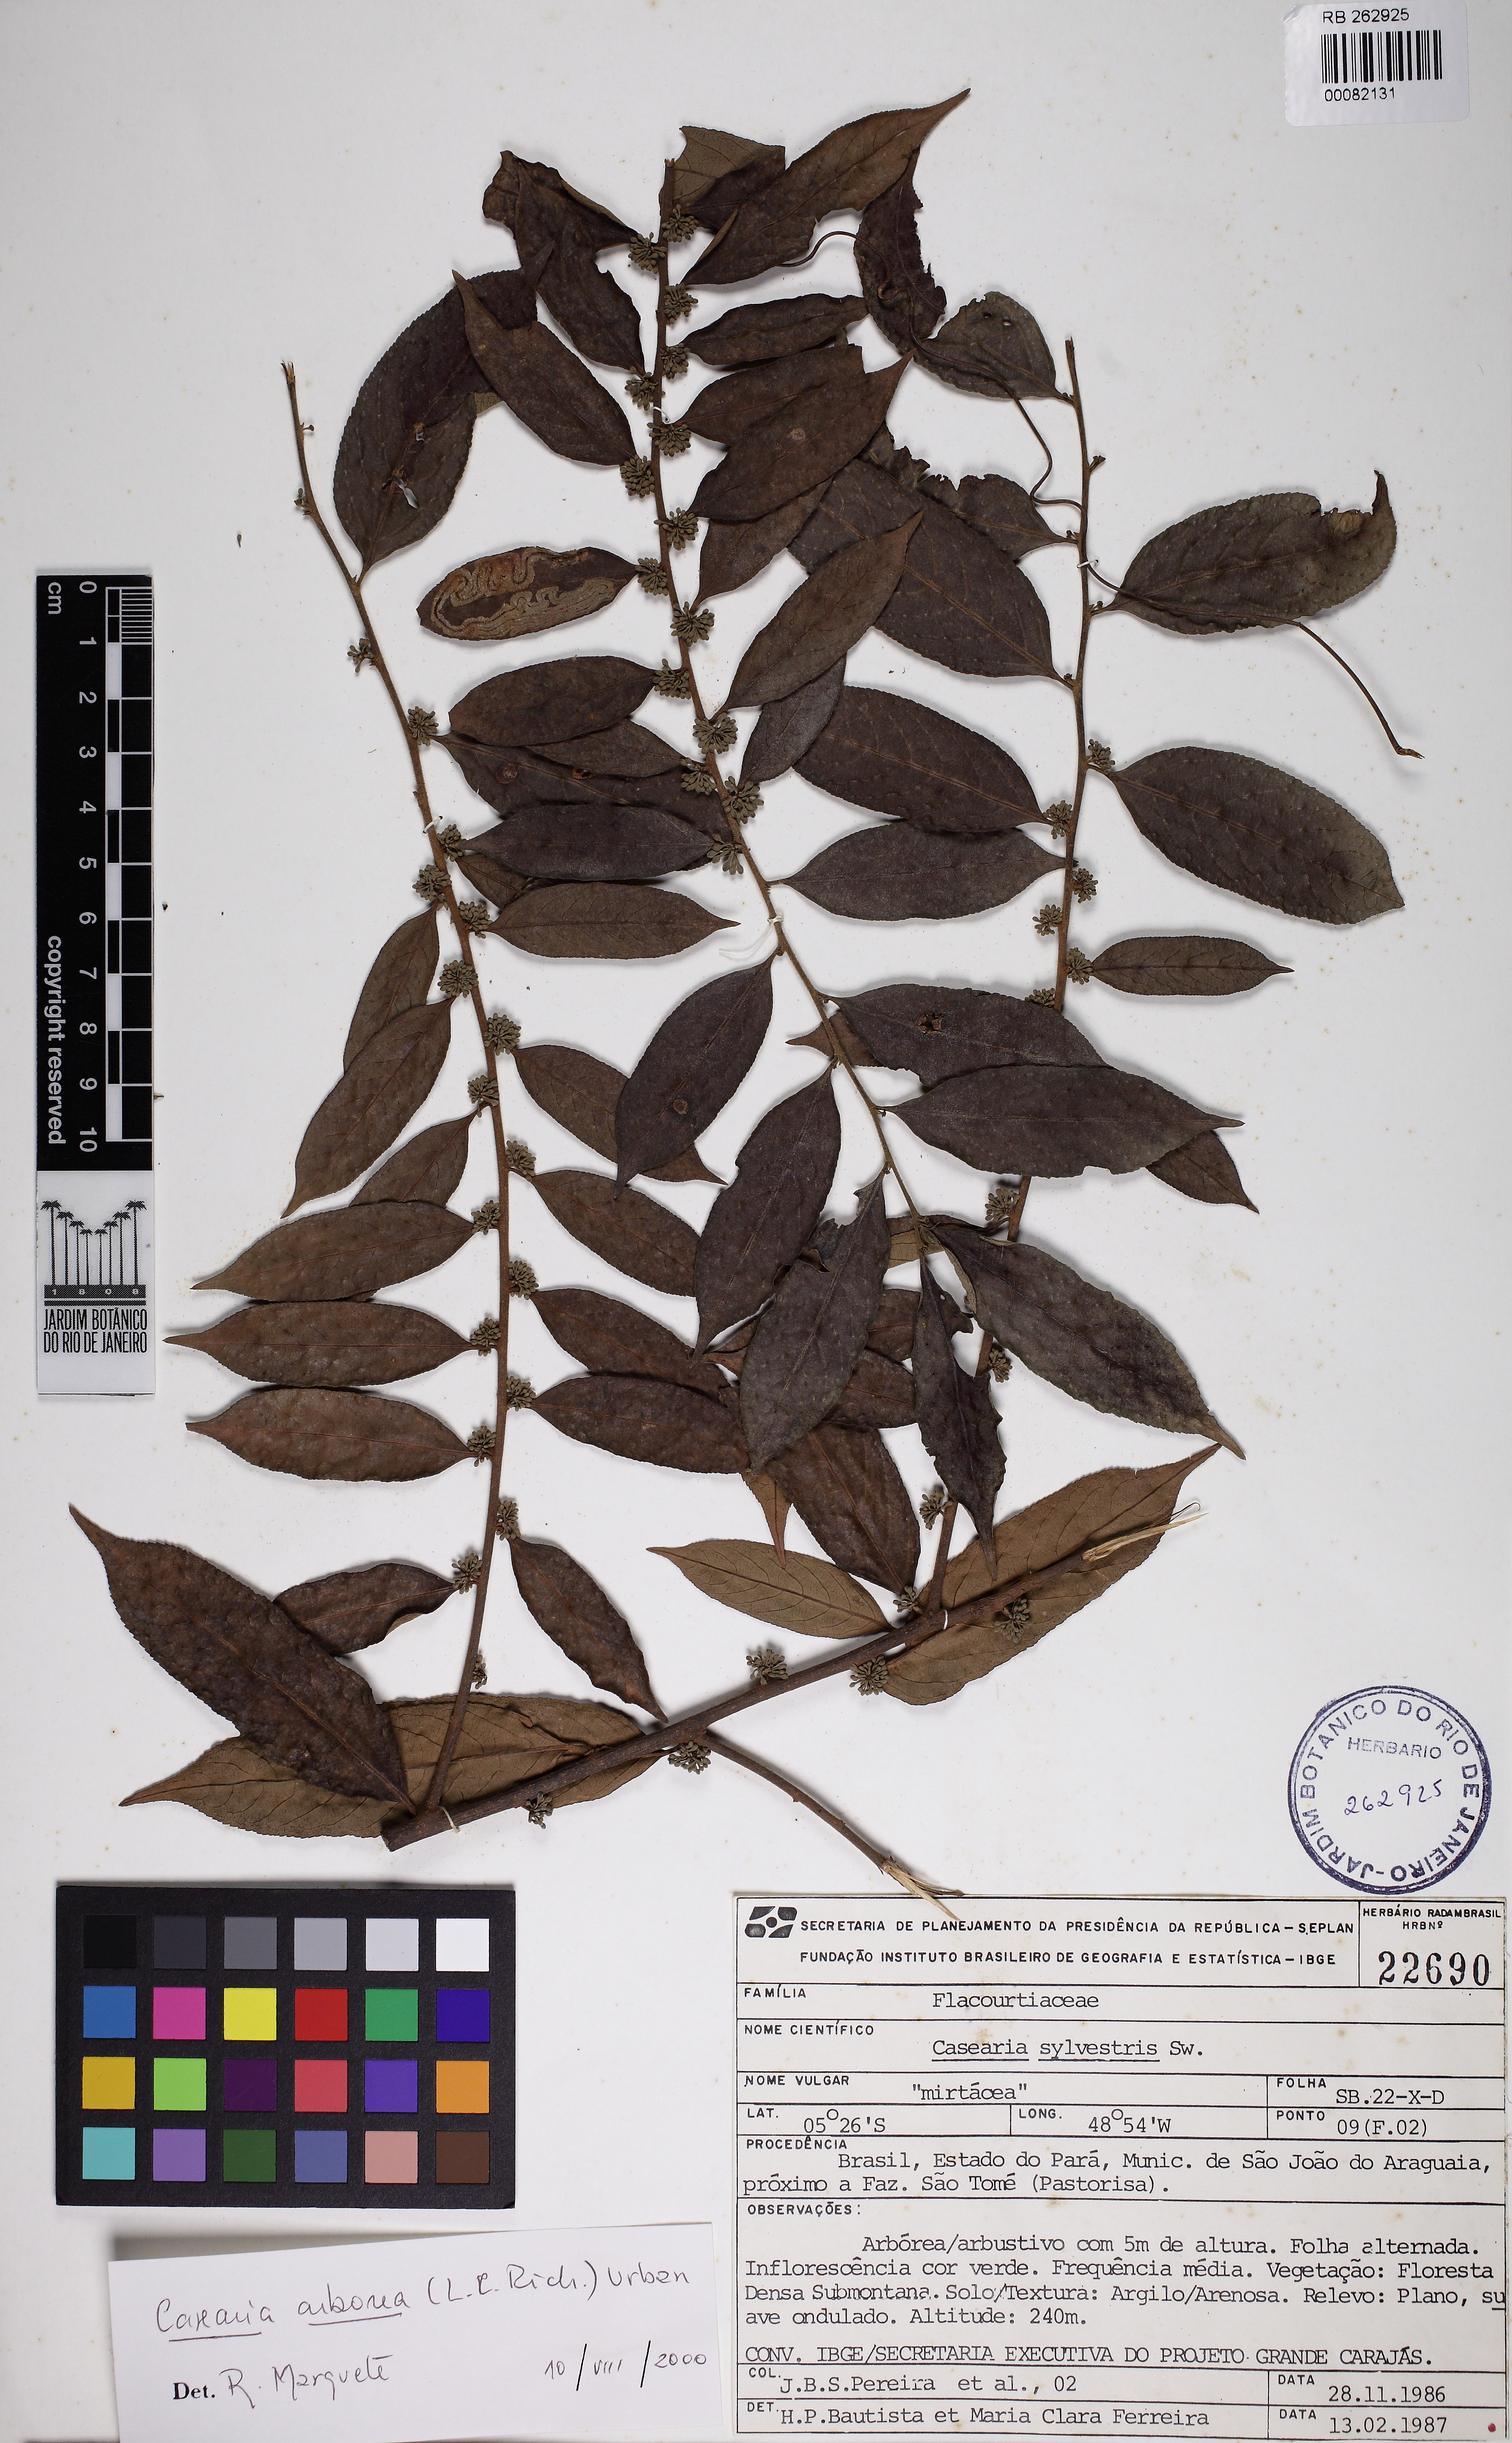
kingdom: Plantae
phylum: Tracheophyta
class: Magnoliopsida
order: Malpighiales
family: Salicaceae
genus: Casearia
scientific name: Casearia
